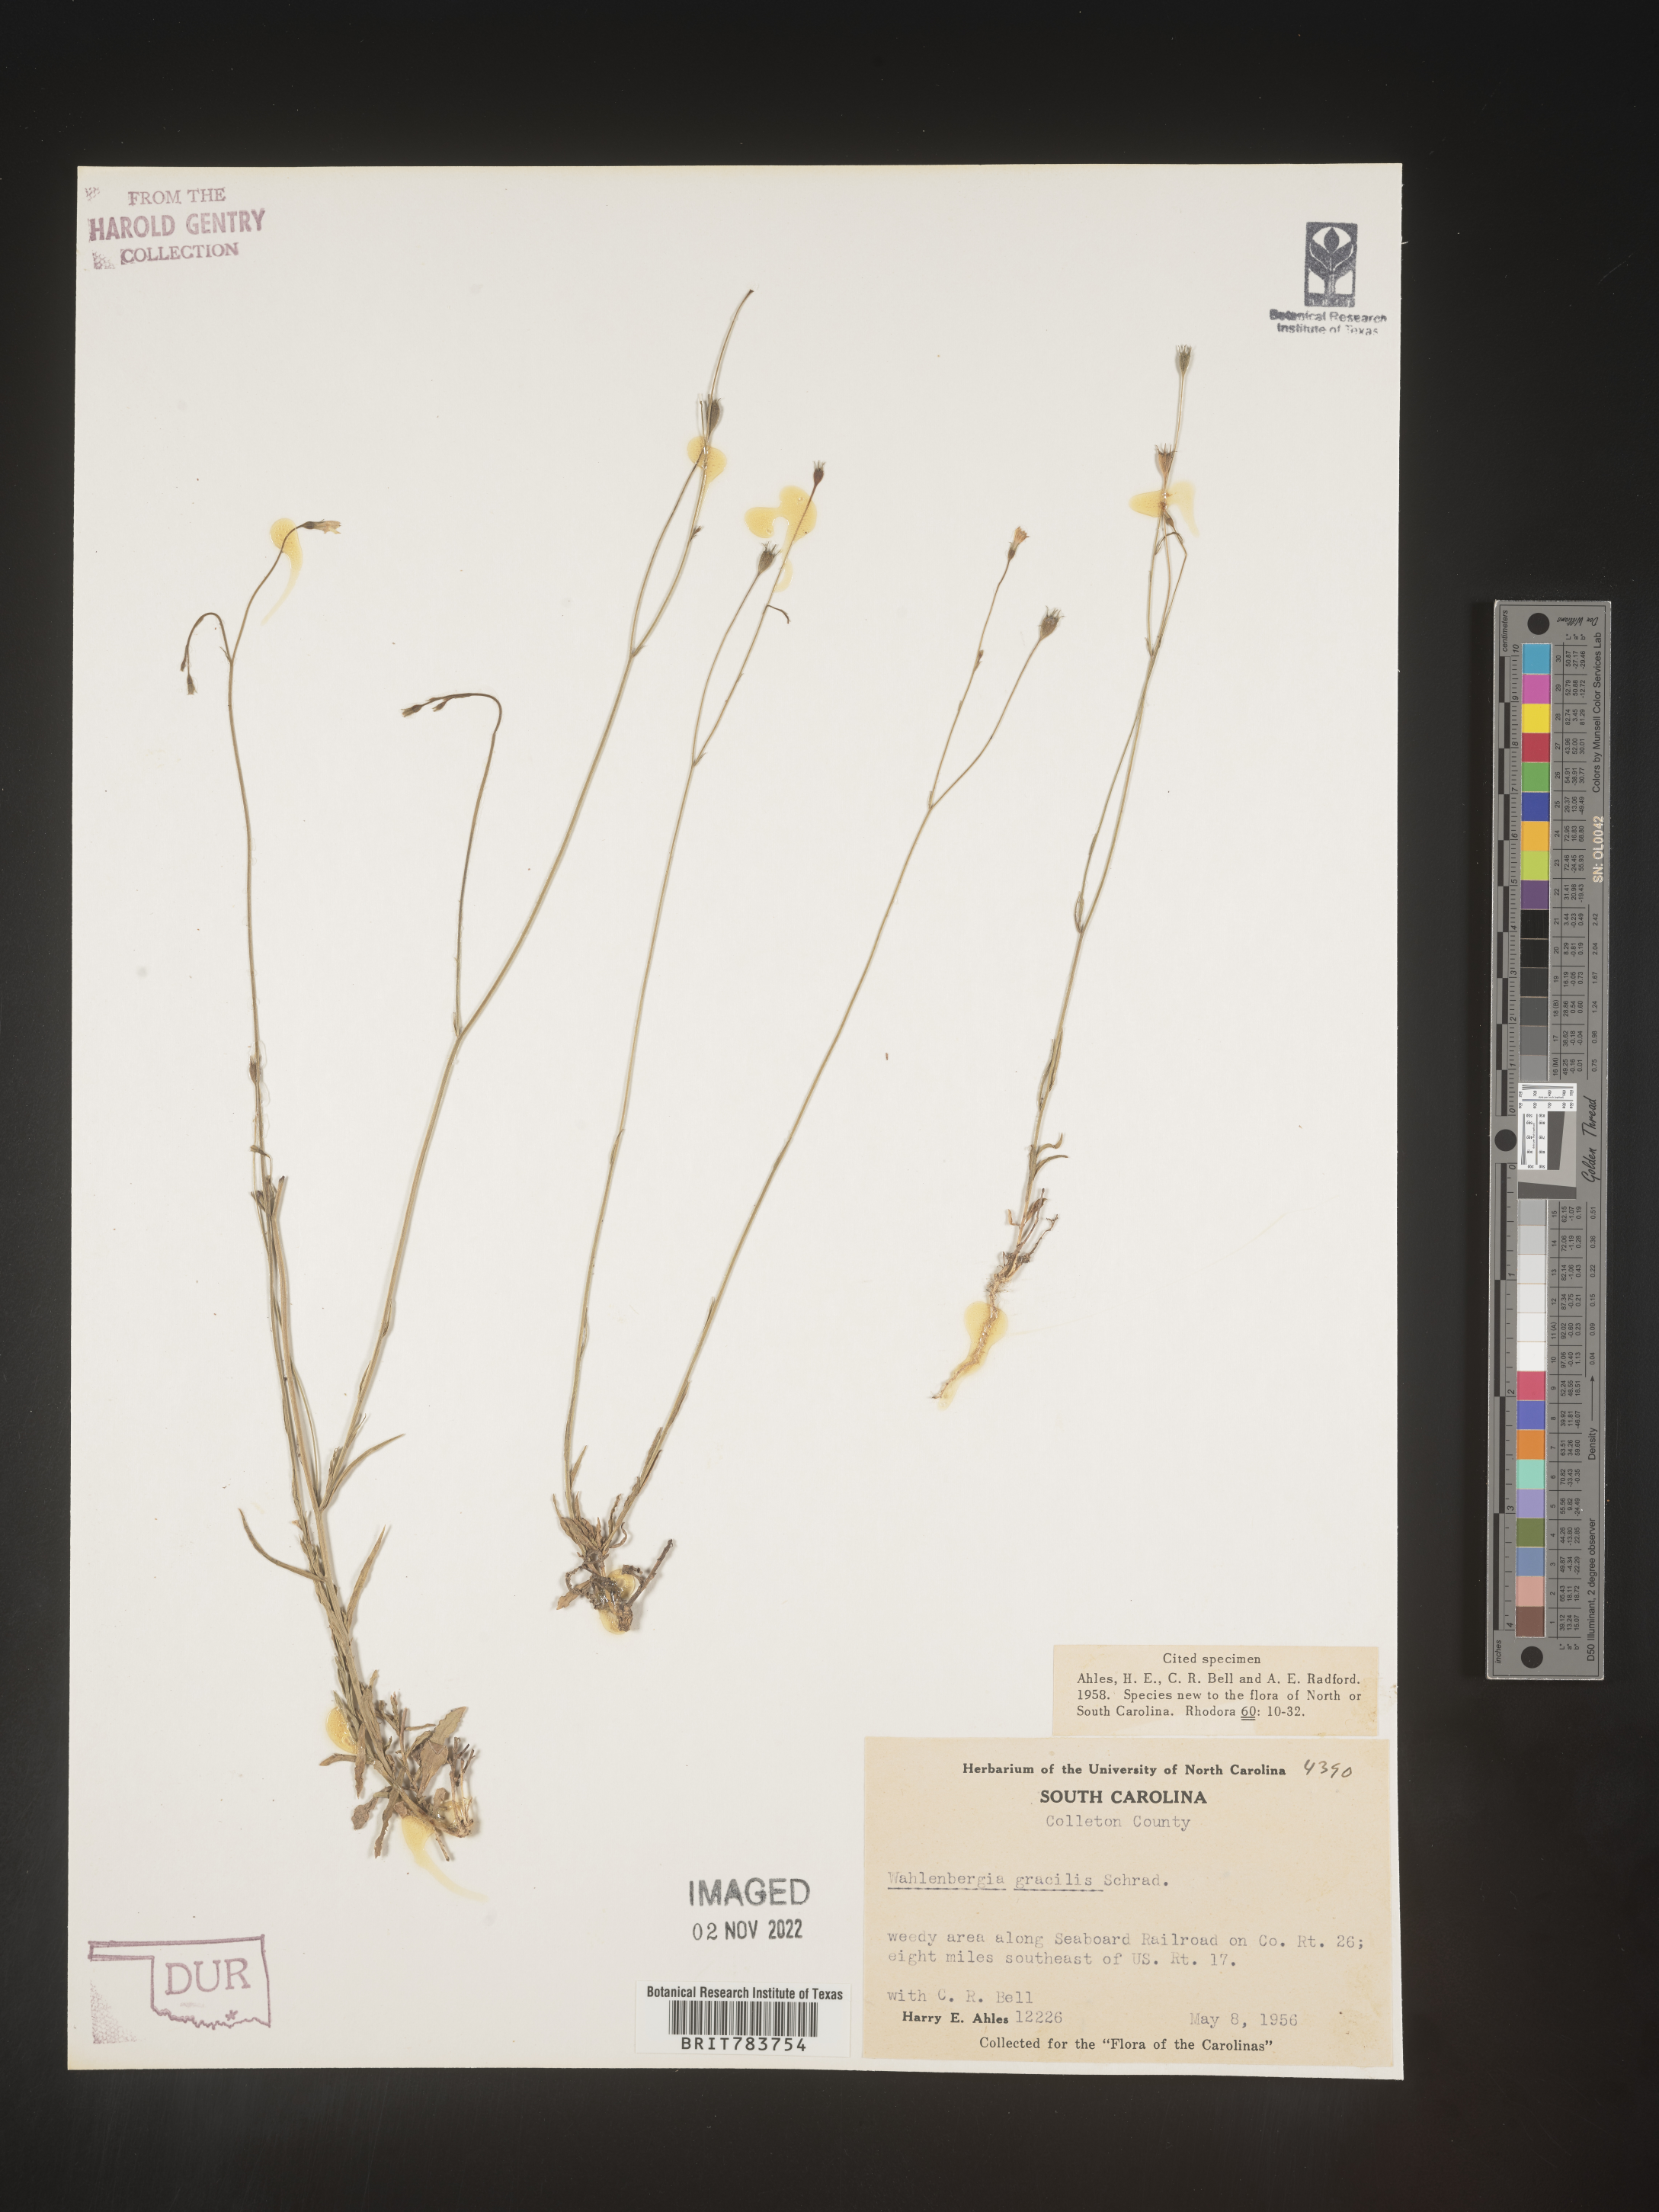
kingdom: Plantae
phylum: Tracheophyta
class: Magnoliopsida
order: Asterales
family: Campanulaceae
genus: Wahlenbergia
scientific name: Wahlenbergia marginata
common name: Southern rockbell
